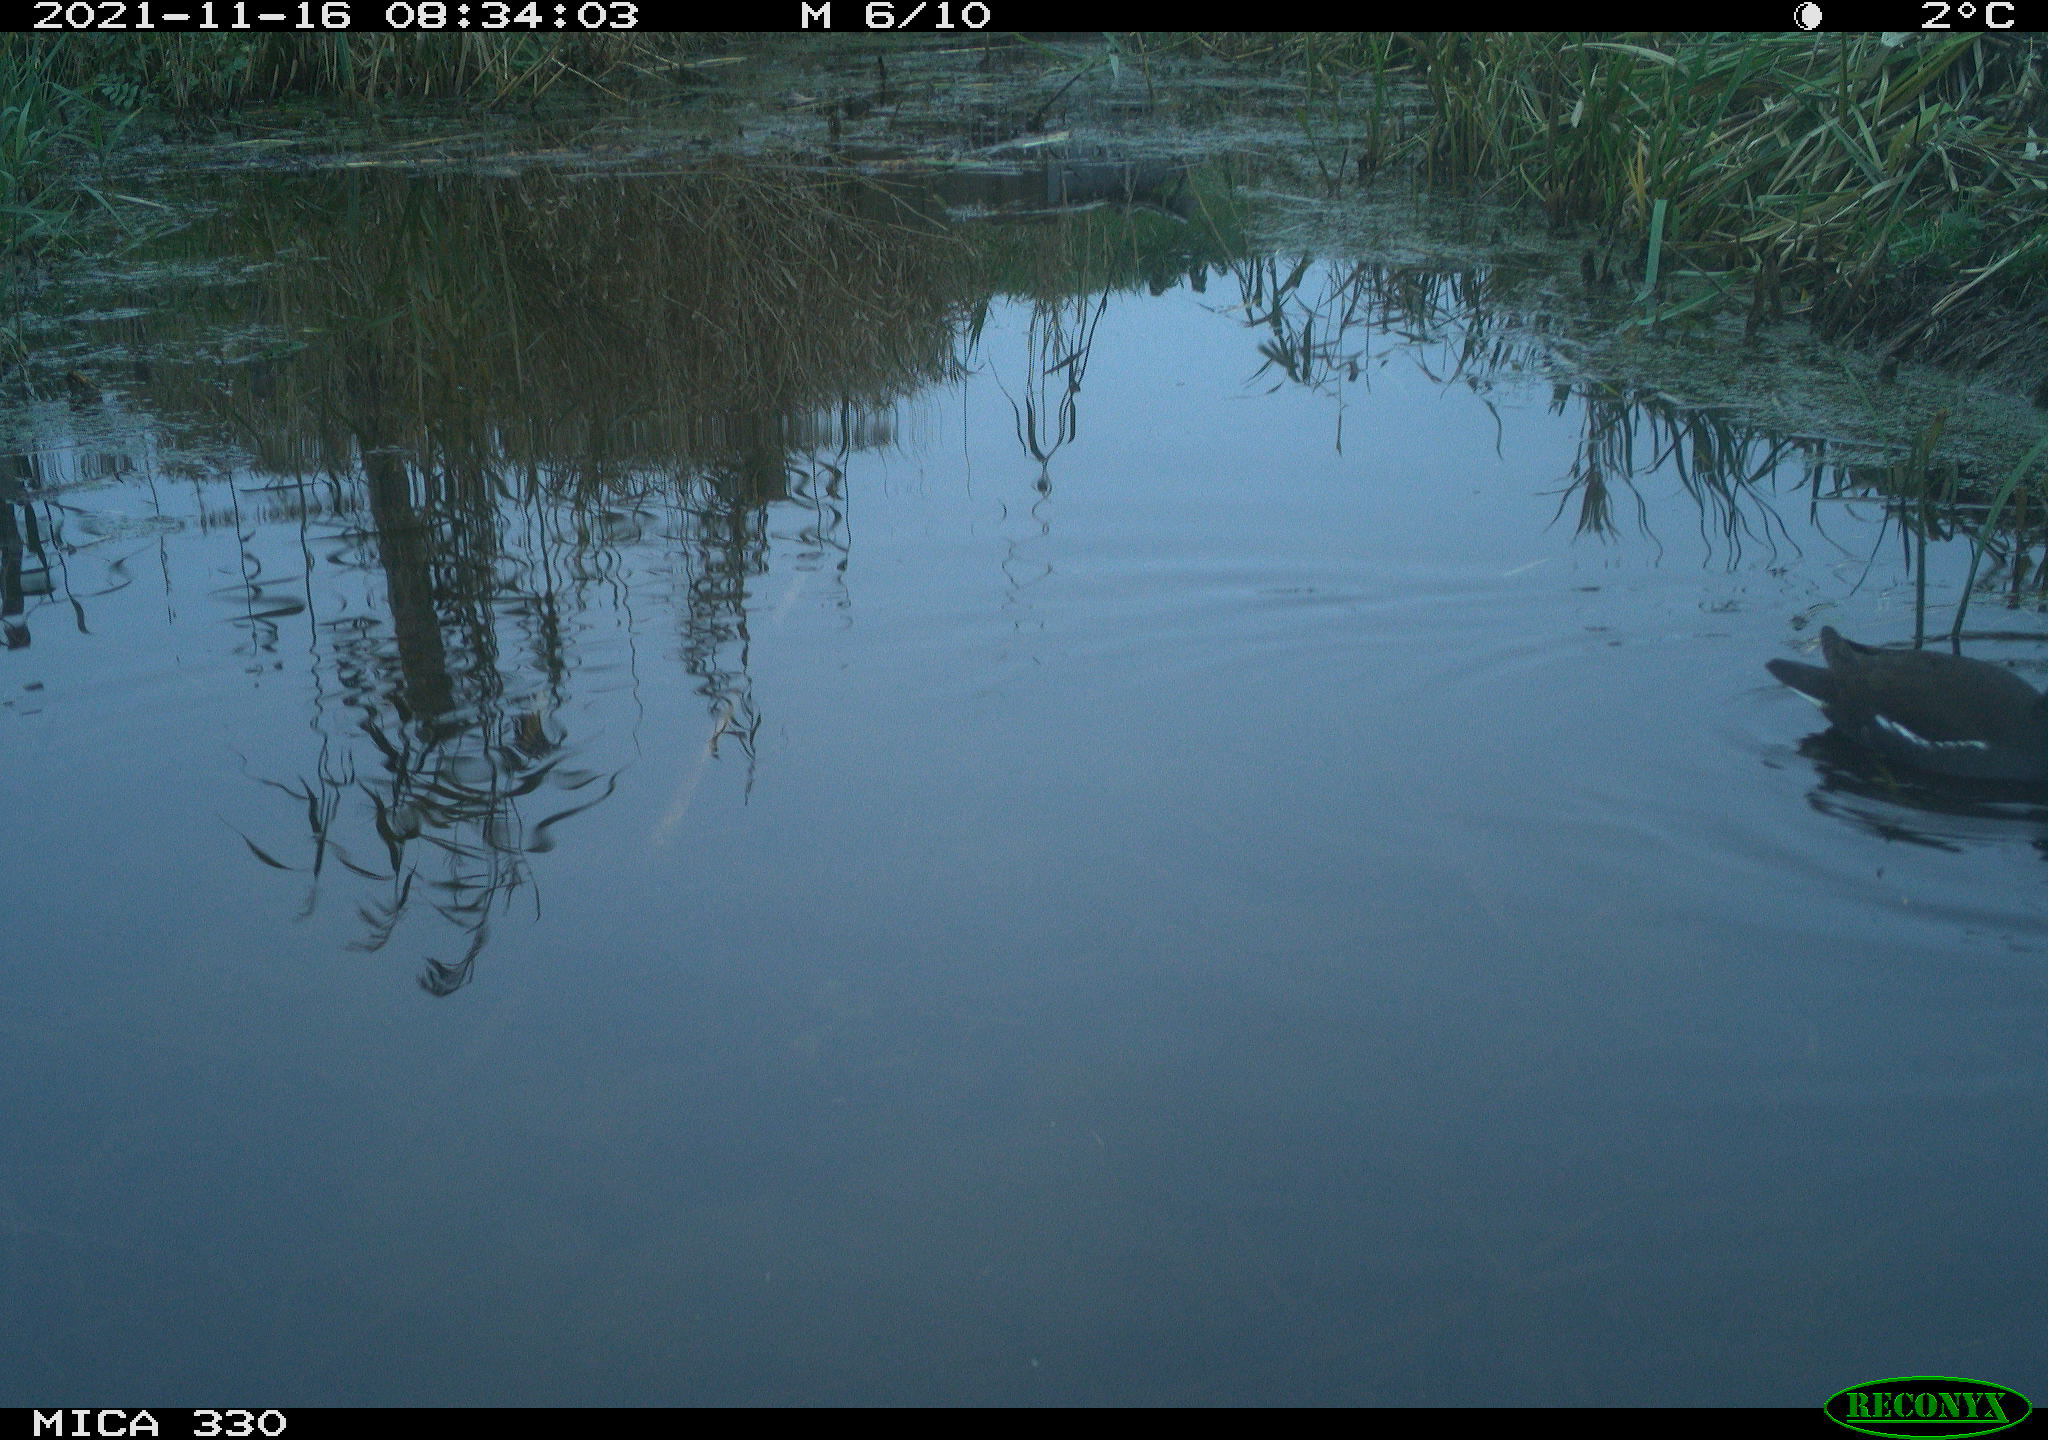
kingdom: Animalia
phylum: Chordata
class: Aves
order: Gruiformes
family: Rallidae
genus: Gallinula
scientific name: Gallinula chloropus
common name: Common moorhen
